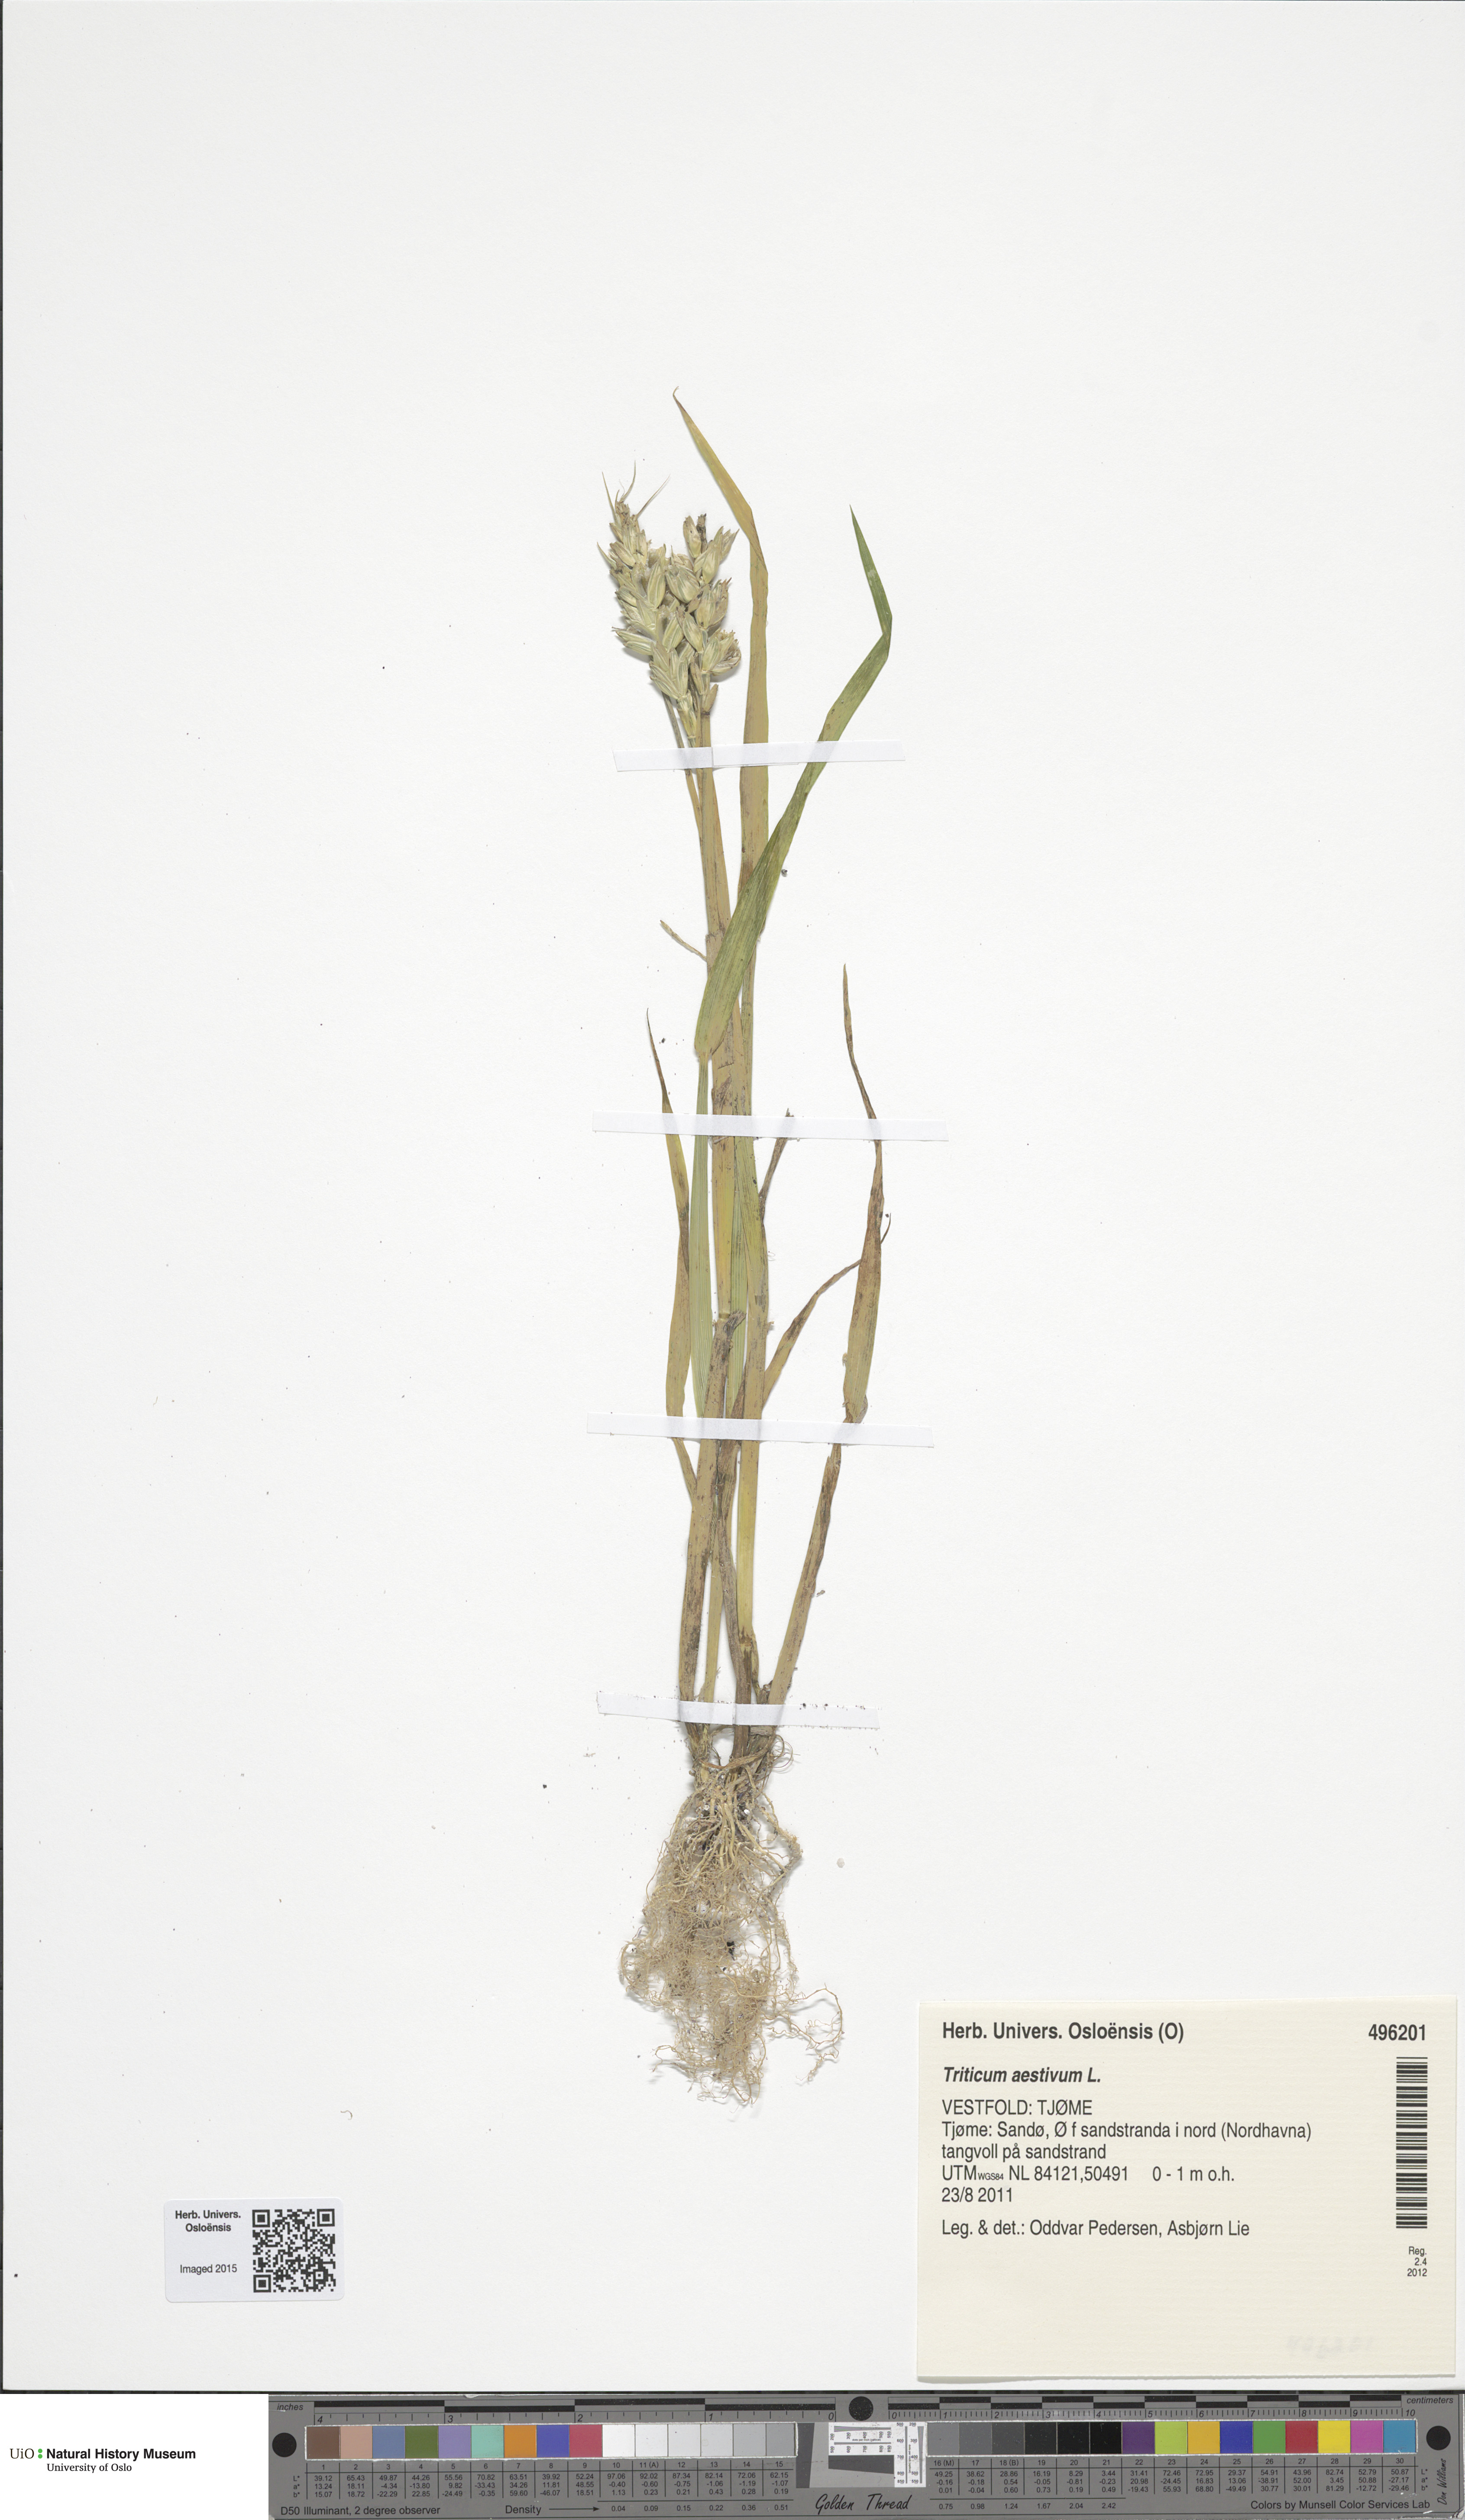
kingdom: Plantae
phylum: Tracheophyta
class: Liliopsida
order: Poales
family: Poaceae
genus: Triticum
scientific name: Triticum aestivum
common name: Common wheat
